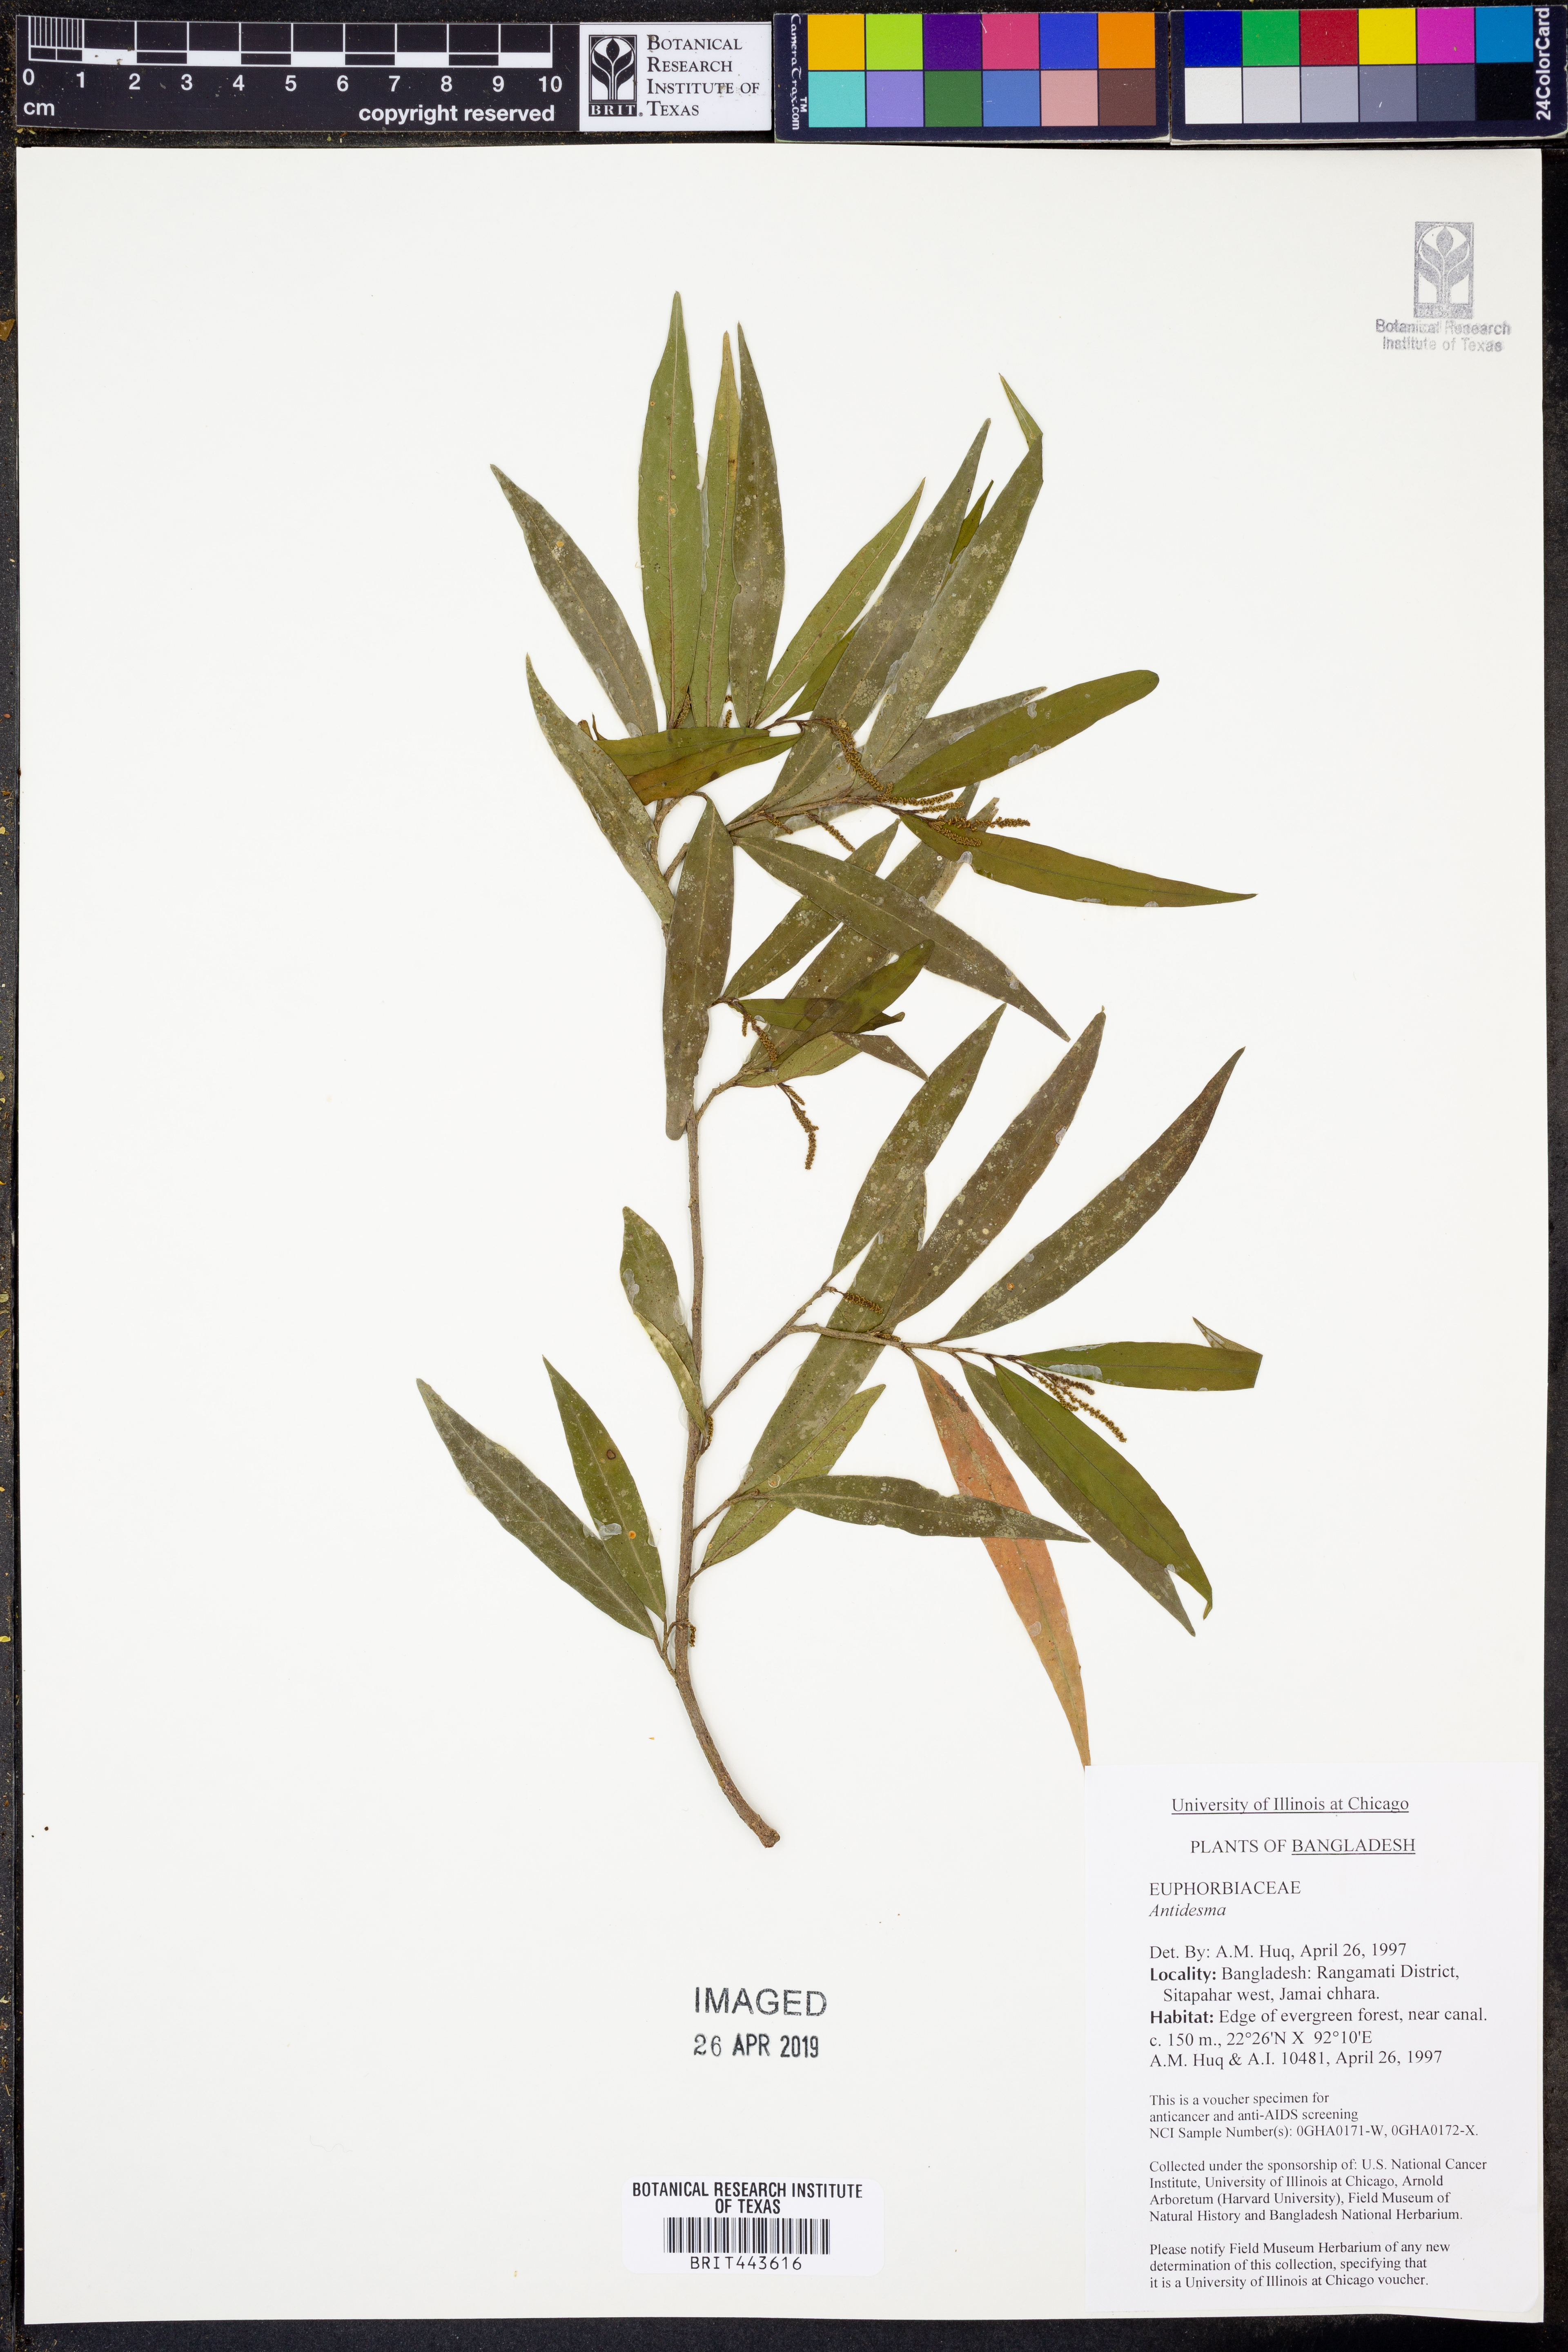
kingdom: Plantae
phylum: Tracheophyta
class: Magnoliopsida
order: Malpighiales
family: Phyllanthaceae
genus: Antidesma
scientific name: Antidesma
